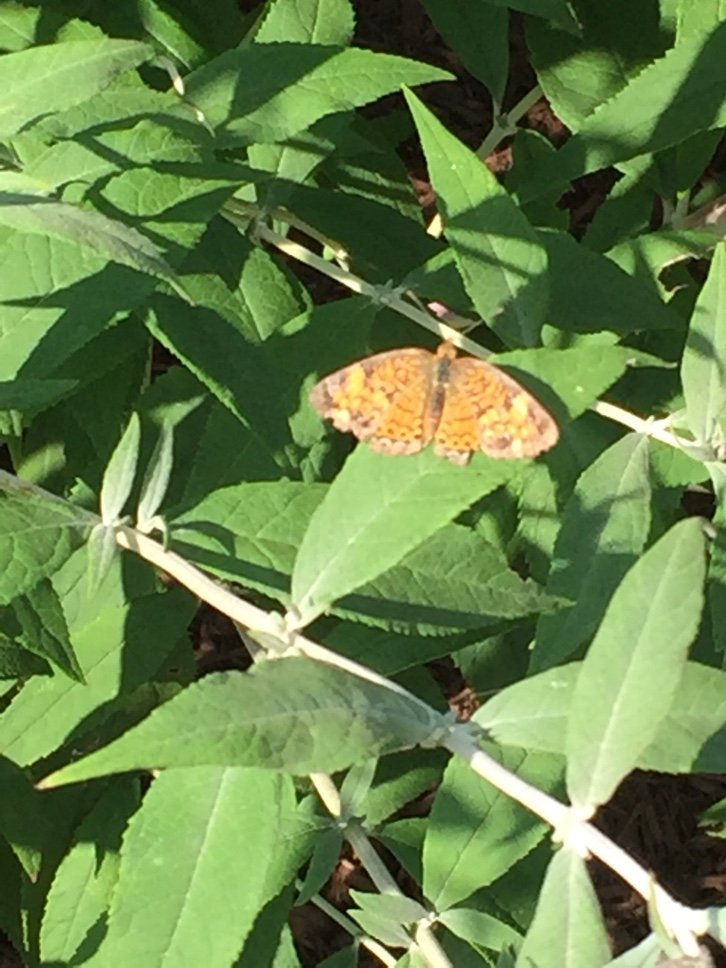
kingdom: Animalia
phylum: Arthropoda
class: Insecta
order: Lepidoptera
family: Nymphalidae
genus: Phyciodes
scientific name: Phyciodes tharos
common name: Pearl Crescent
